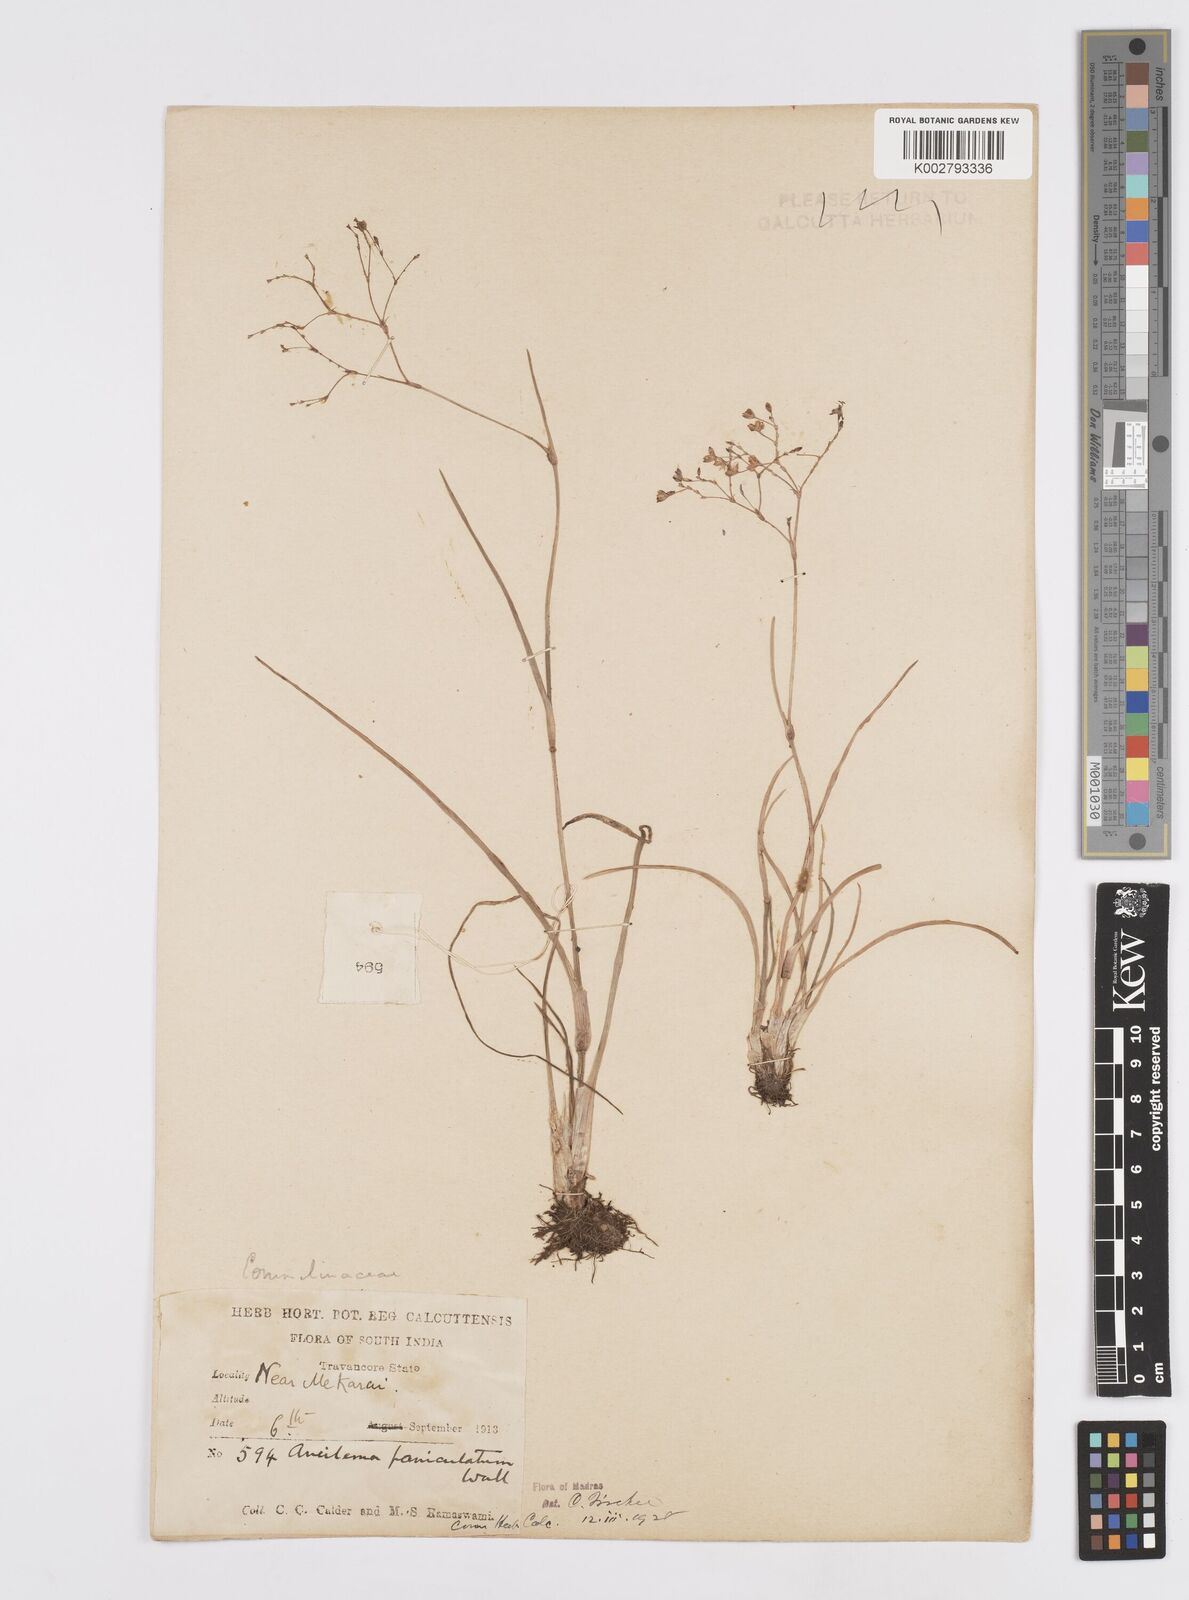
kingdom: Plantae
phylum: Tracheophyta
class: Liliopsida
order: Commelinales
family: Commelinaceae
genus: Murdannia
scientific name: Murdannia semiteres
